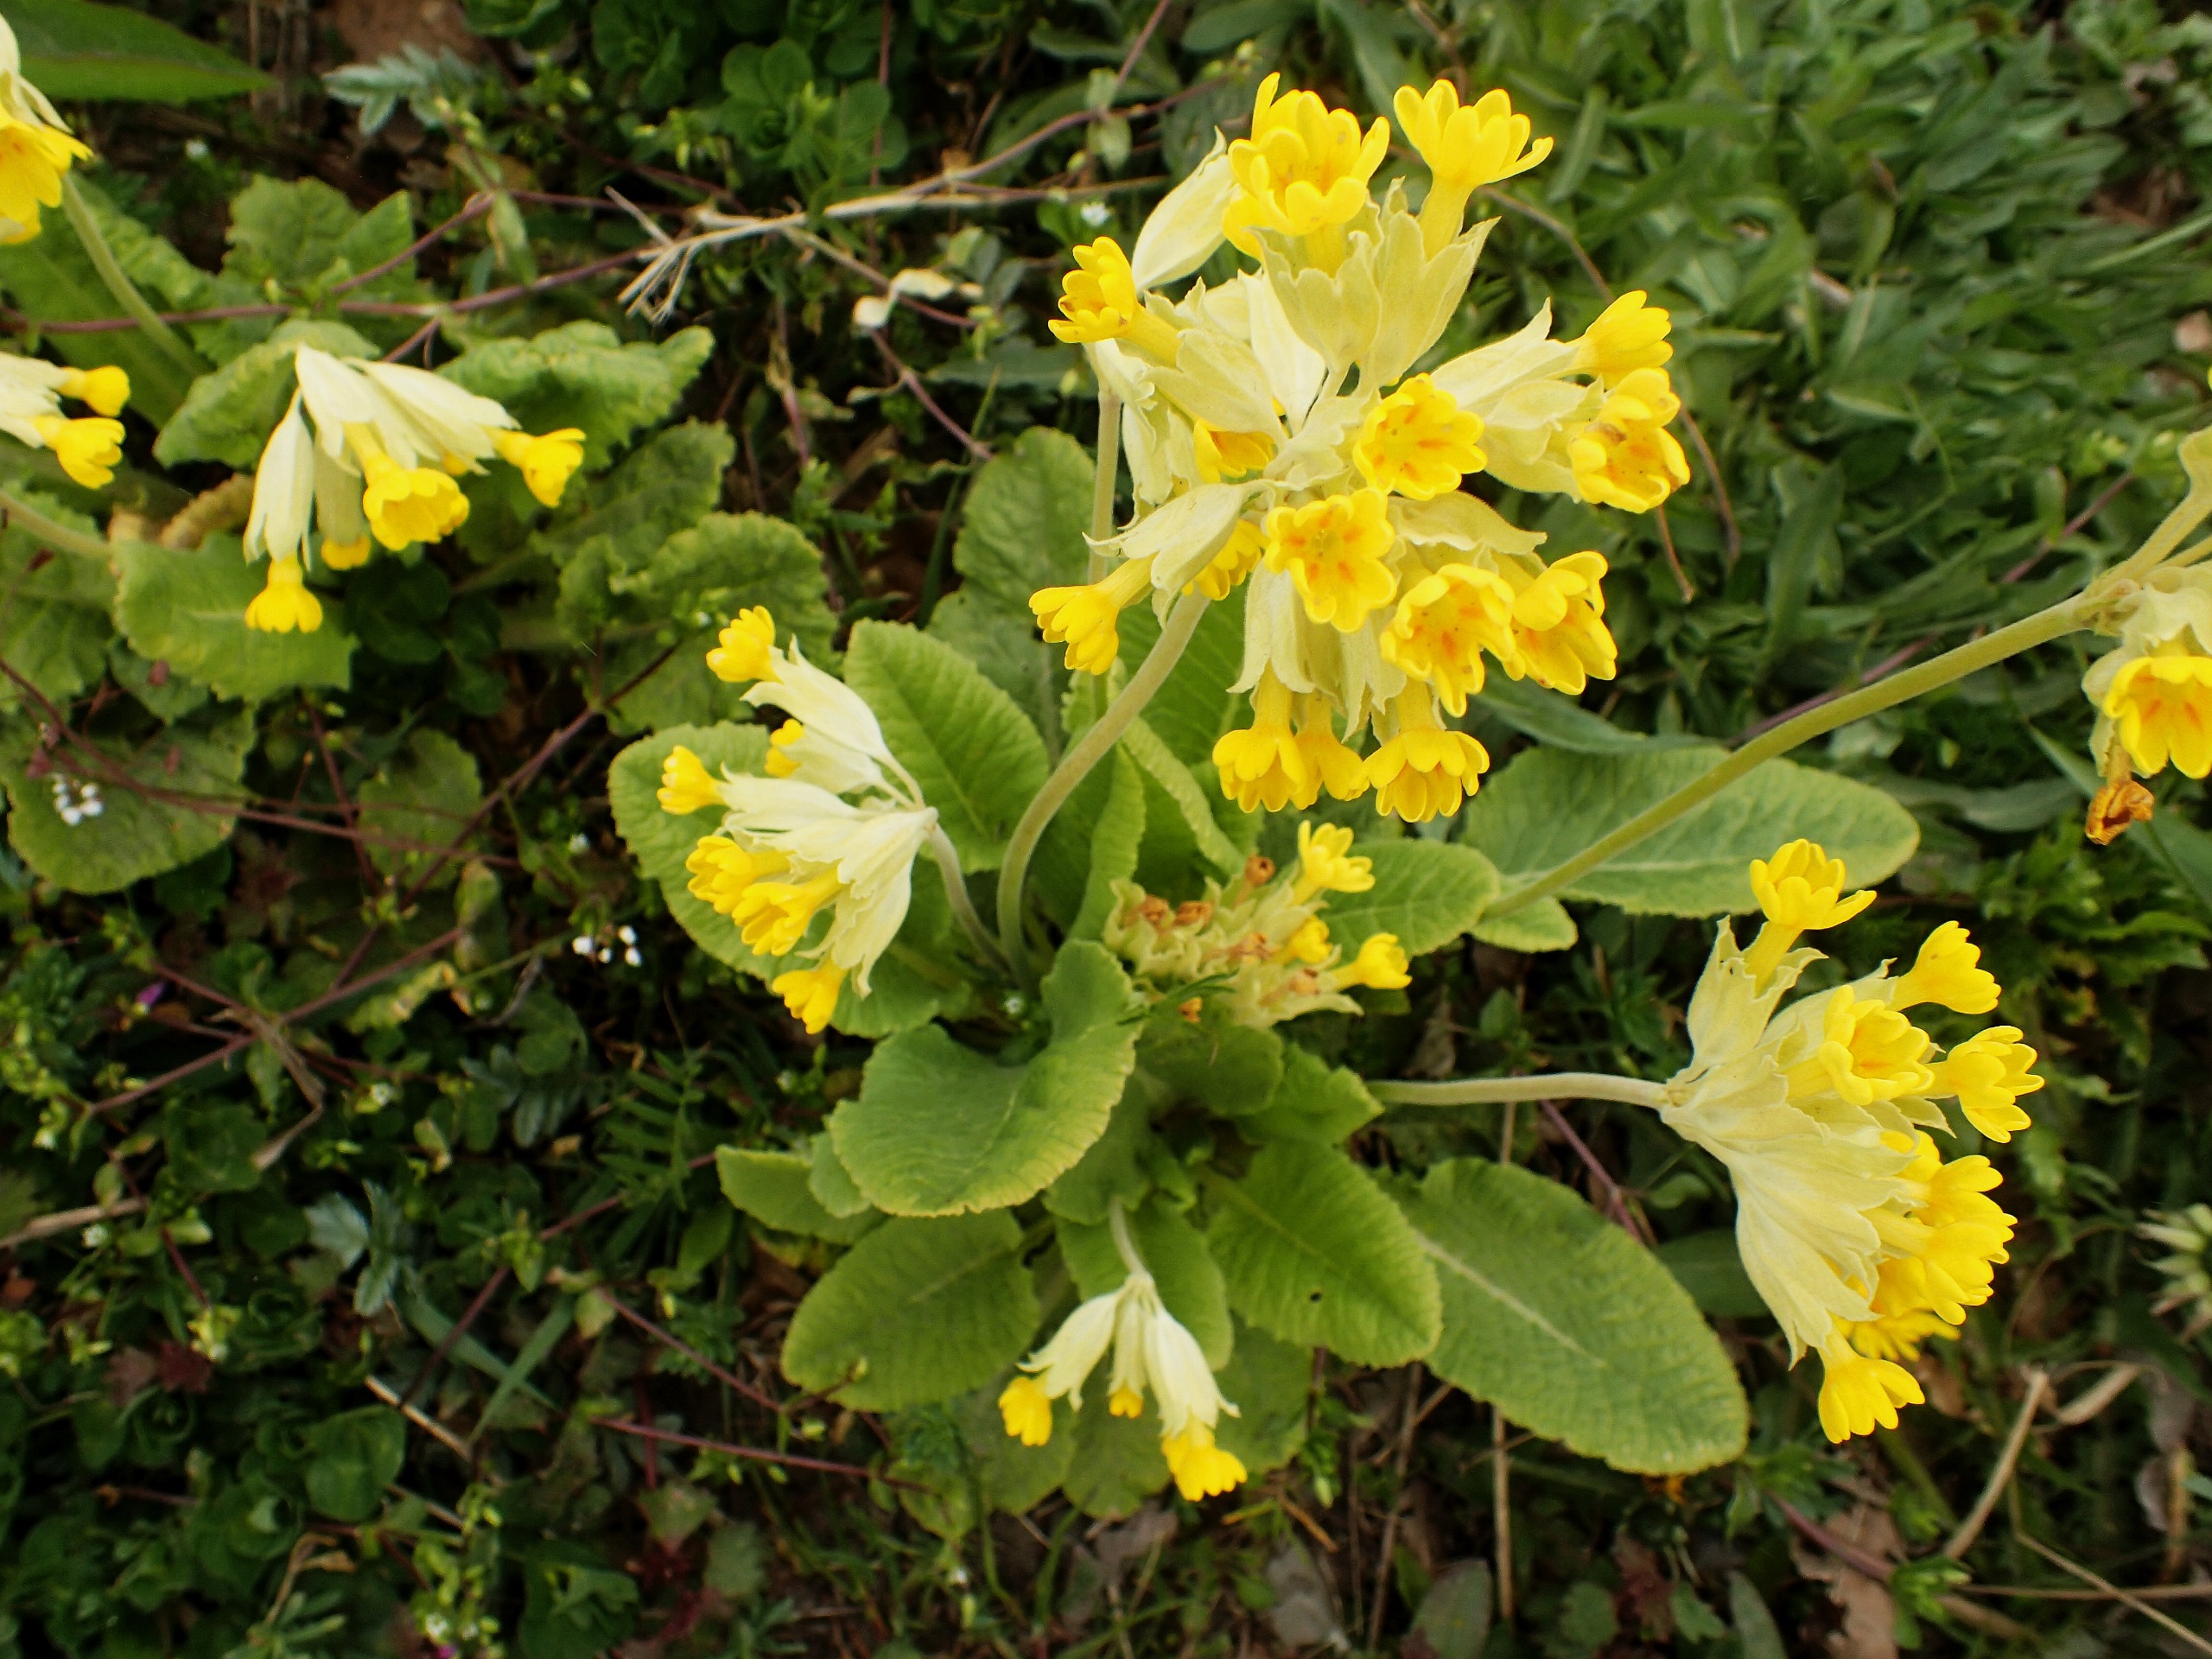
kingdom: Plantae
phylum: Tracheophyta
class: Magnoliopsida
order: Ericales
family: Primulaceae
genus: Primula
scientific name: Primula veris
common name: Hulkravet kodriver
